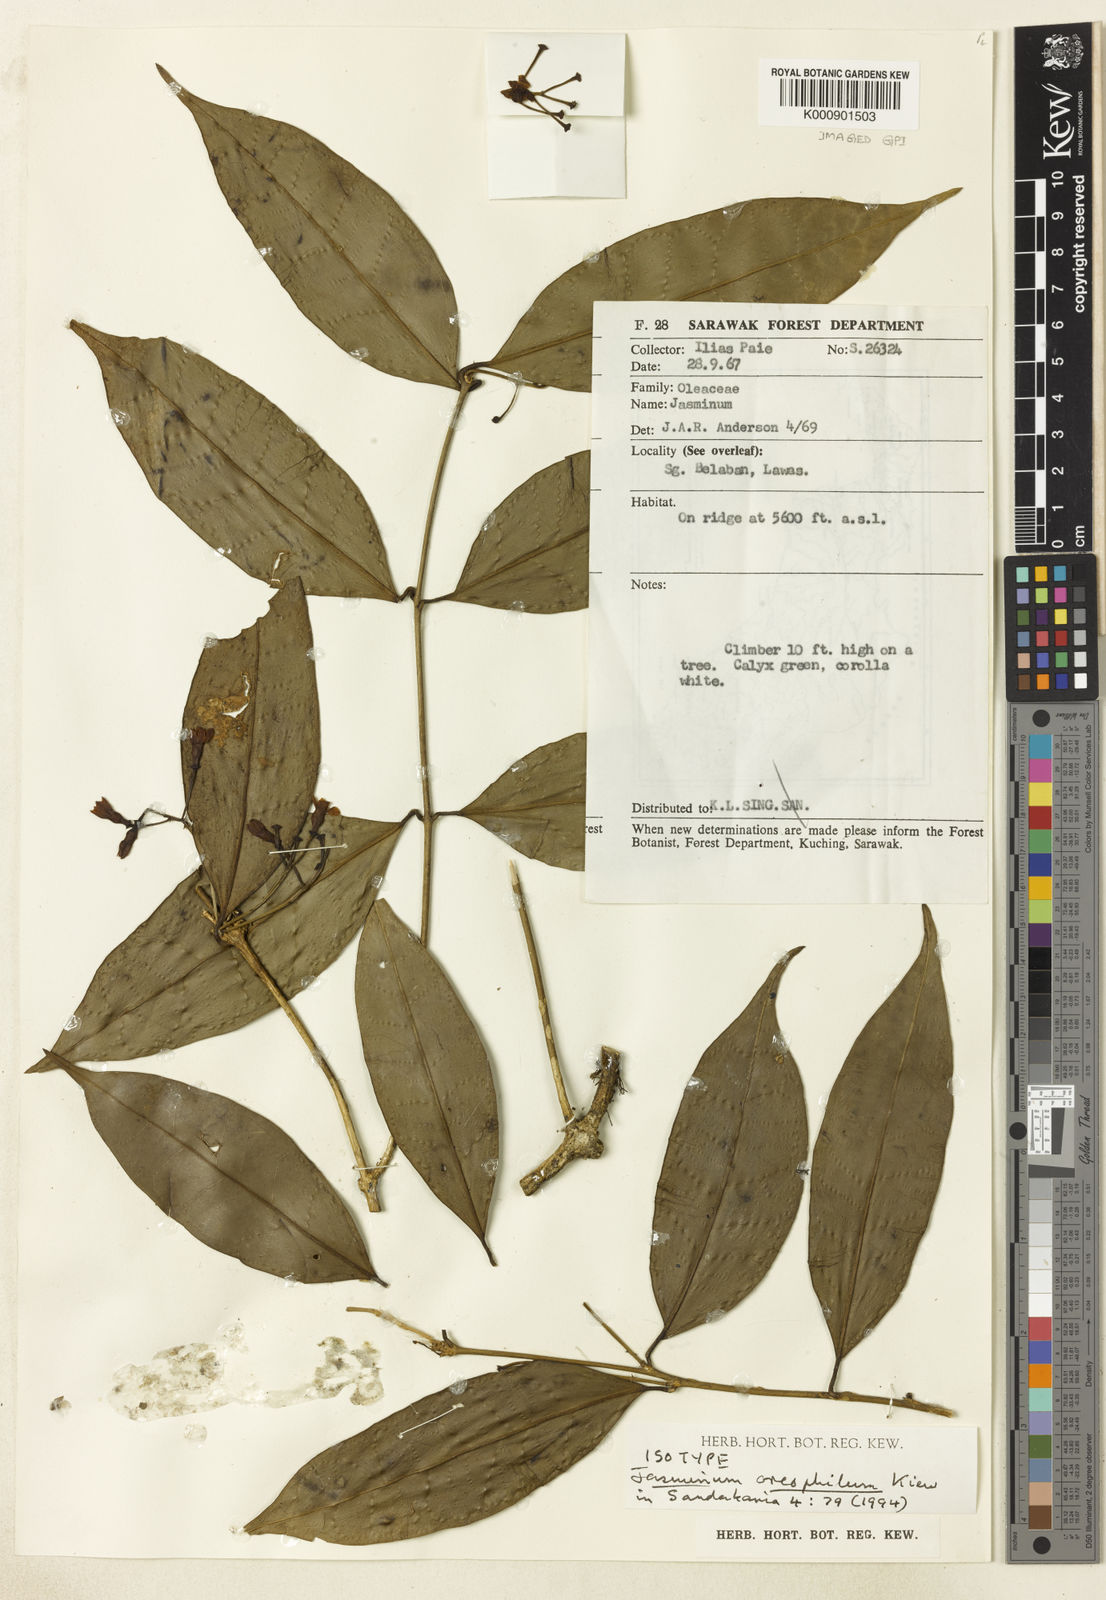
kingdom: Plantae
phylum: Tracheophyta
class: Magnoliopsida
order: Lamiales
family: Oleaceae
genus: Jasminum
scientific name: Jasminum oreophilum
